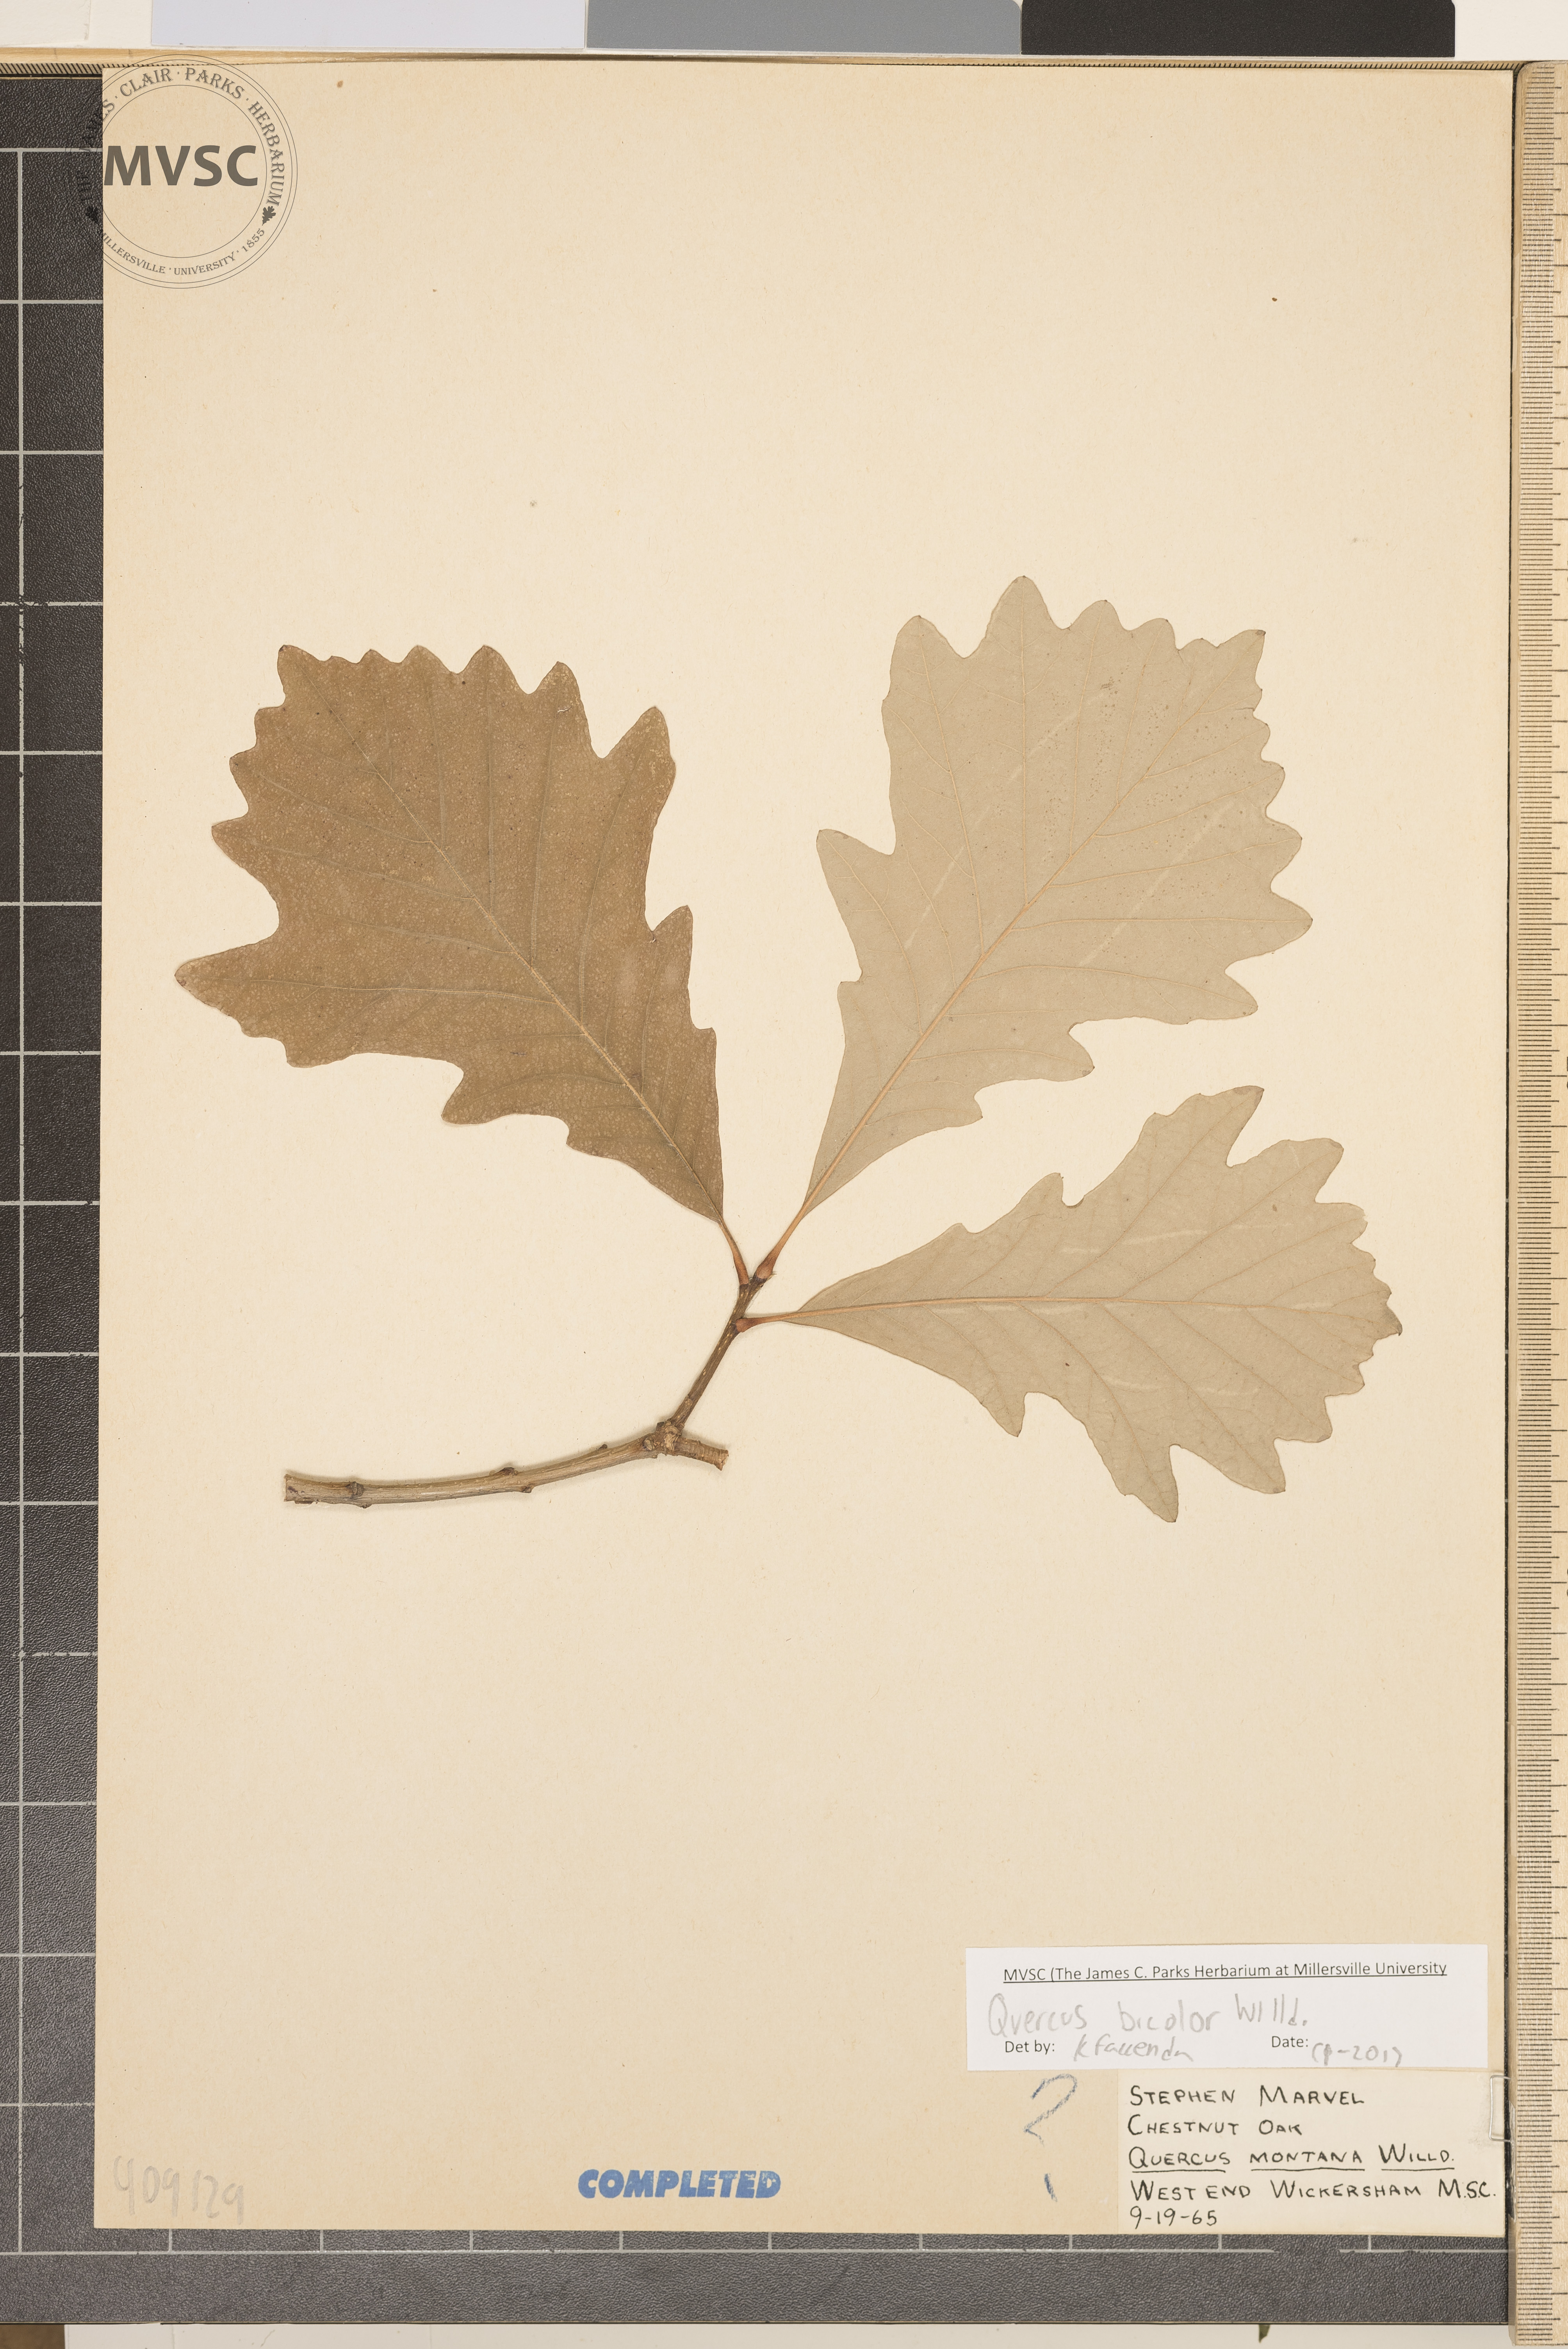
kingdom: Plantae
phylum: Tracheophyta
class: Magnoliopsida
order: Fagales
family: Fagaceae
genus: Quercus
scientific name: Quercus bicolor
